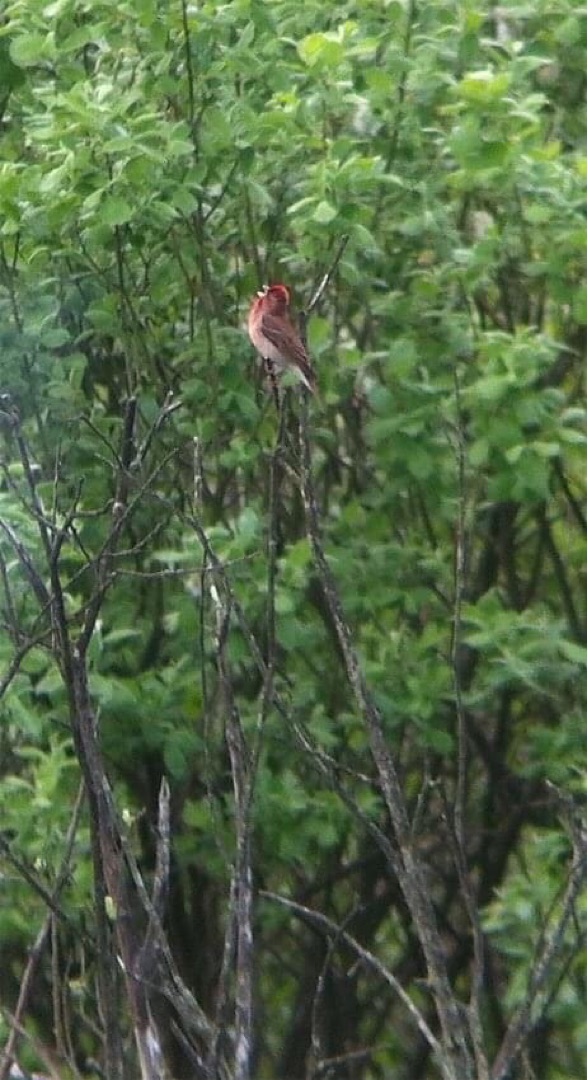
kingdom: Animalia
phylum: Chordata
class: Aves
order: Passeriformes
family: Fringillidae
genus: Carpodacus
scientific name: Carpodacus erythrinus
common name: Karmindompap
